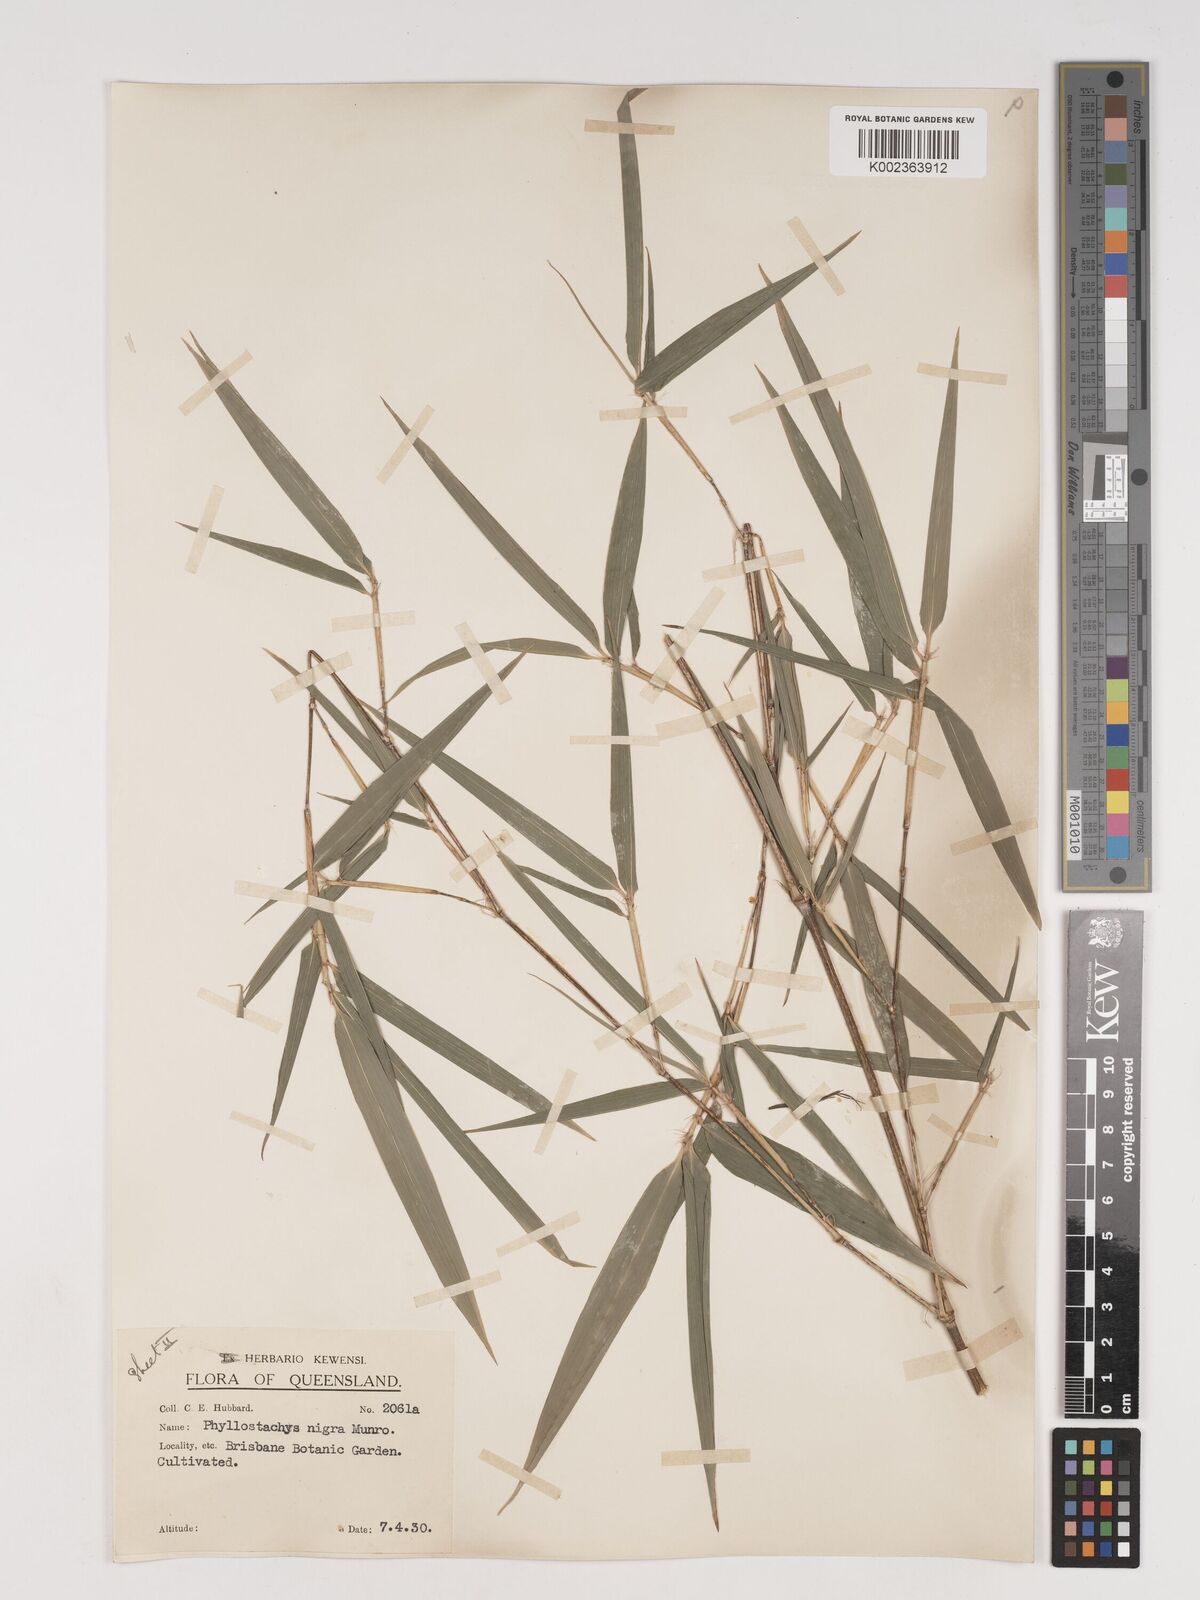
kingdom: Plantae
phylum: Tracheophyta
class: Liliopsida
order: Poales
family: Poaceae
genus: Phyllostachys
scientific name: Phyllostachys nigra
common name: Black bamboo
